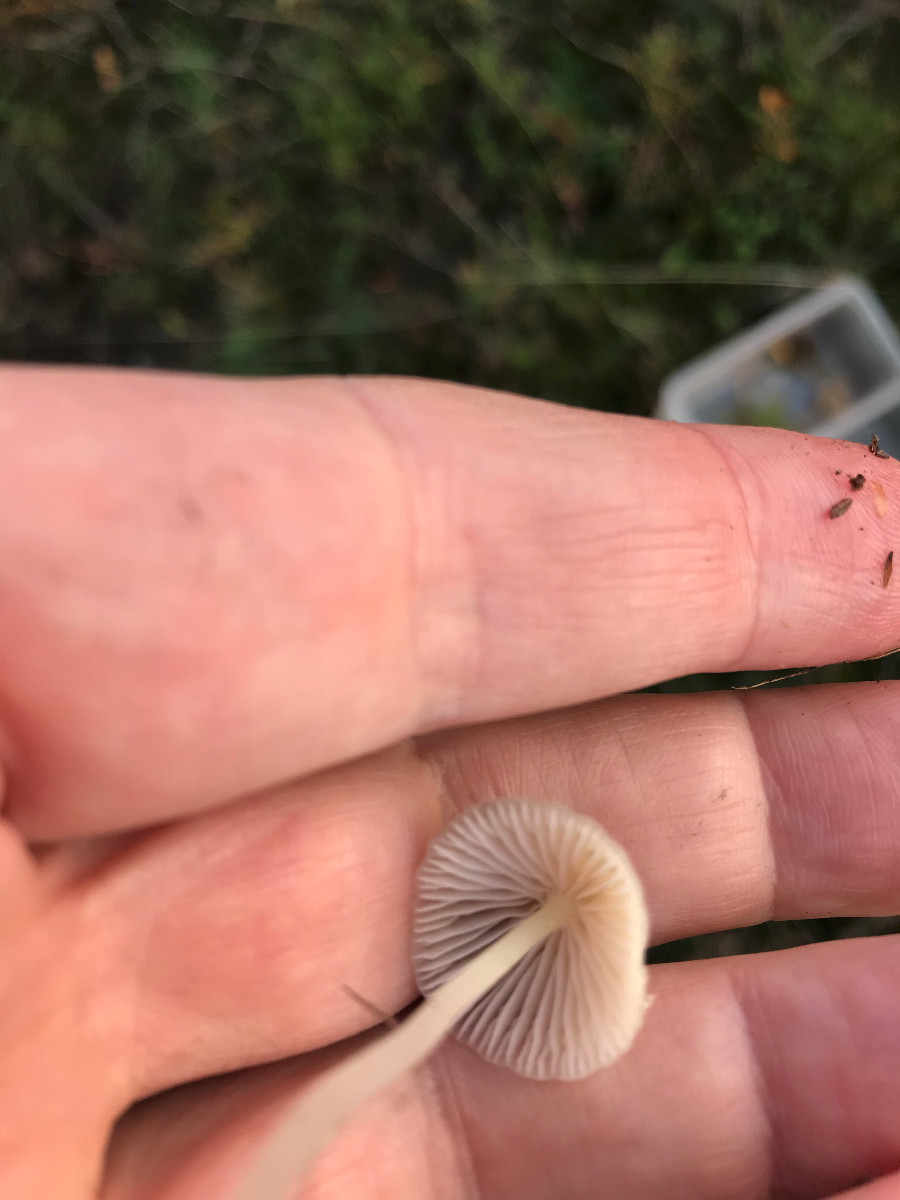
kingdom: Fungi
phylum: Basidiomycota
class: Agaricomycetes
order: Agaricales
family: Mycenaceae
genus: Mycena
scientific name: Mycena epipterygia
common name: gulstokket huesvamp
